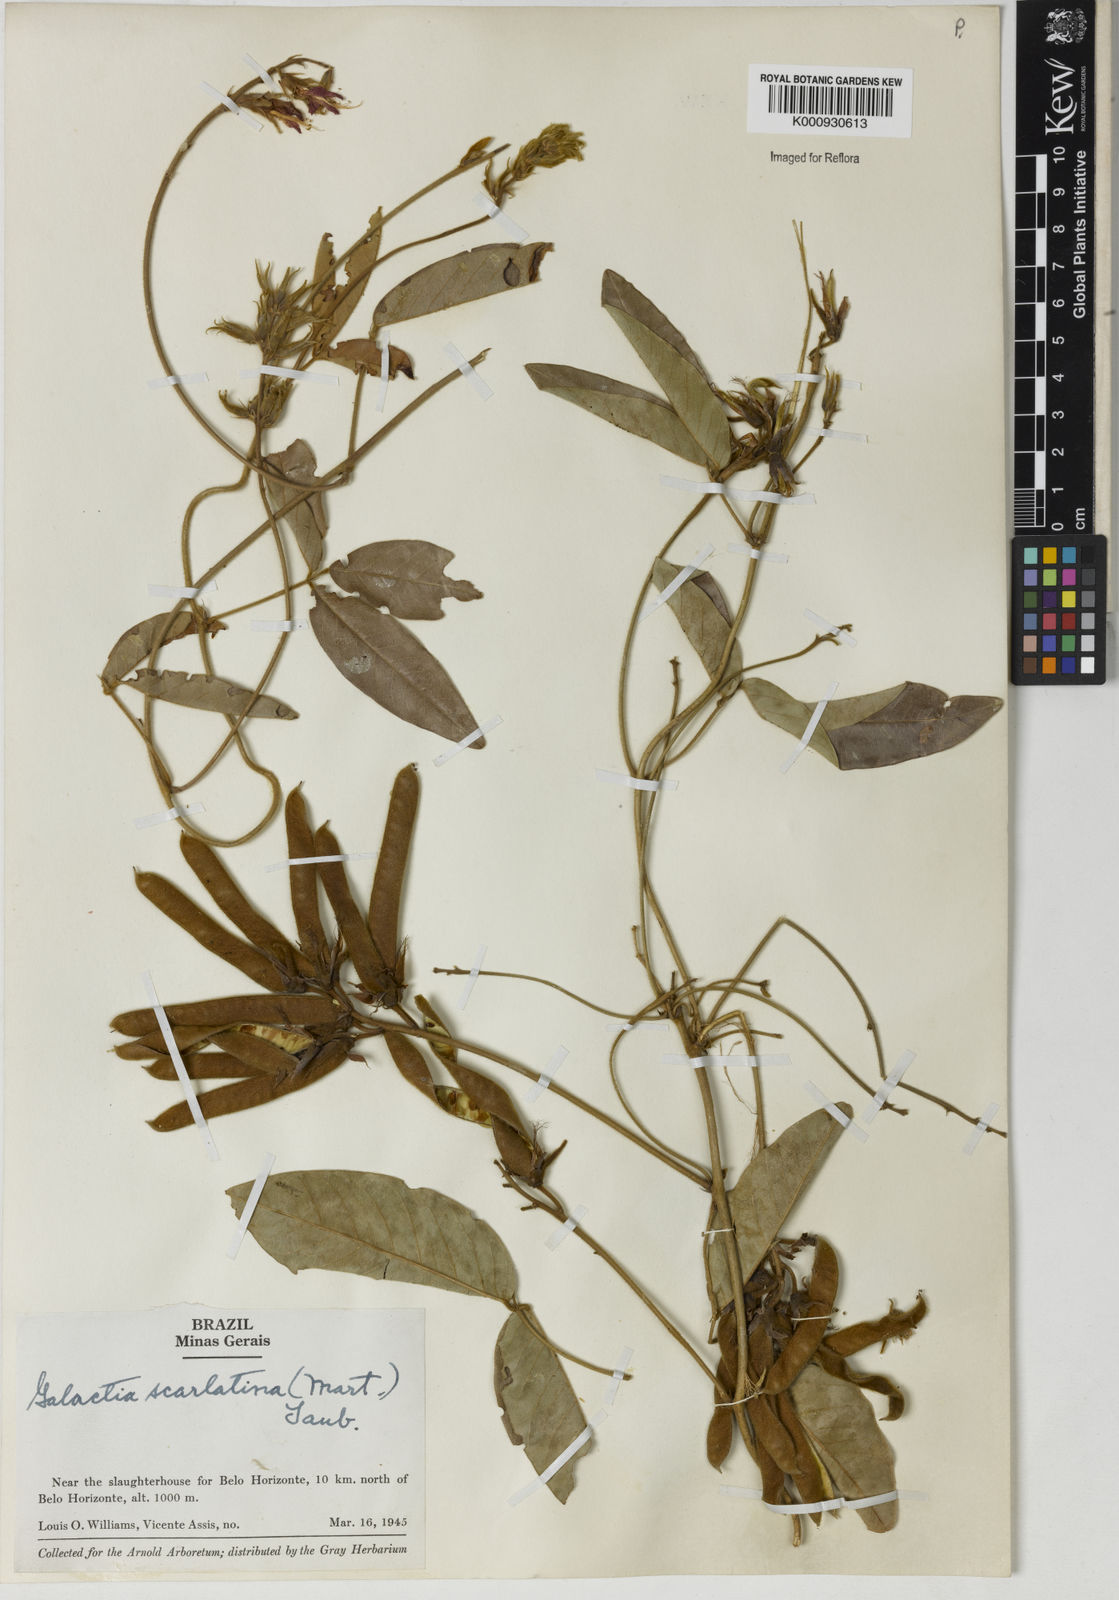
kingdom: Plantae
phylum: Tracheophyta
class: Magnoliopsida
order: Fabales
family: Fabaceae
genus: Betencourtia
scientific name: Betencourtia scarlatina
